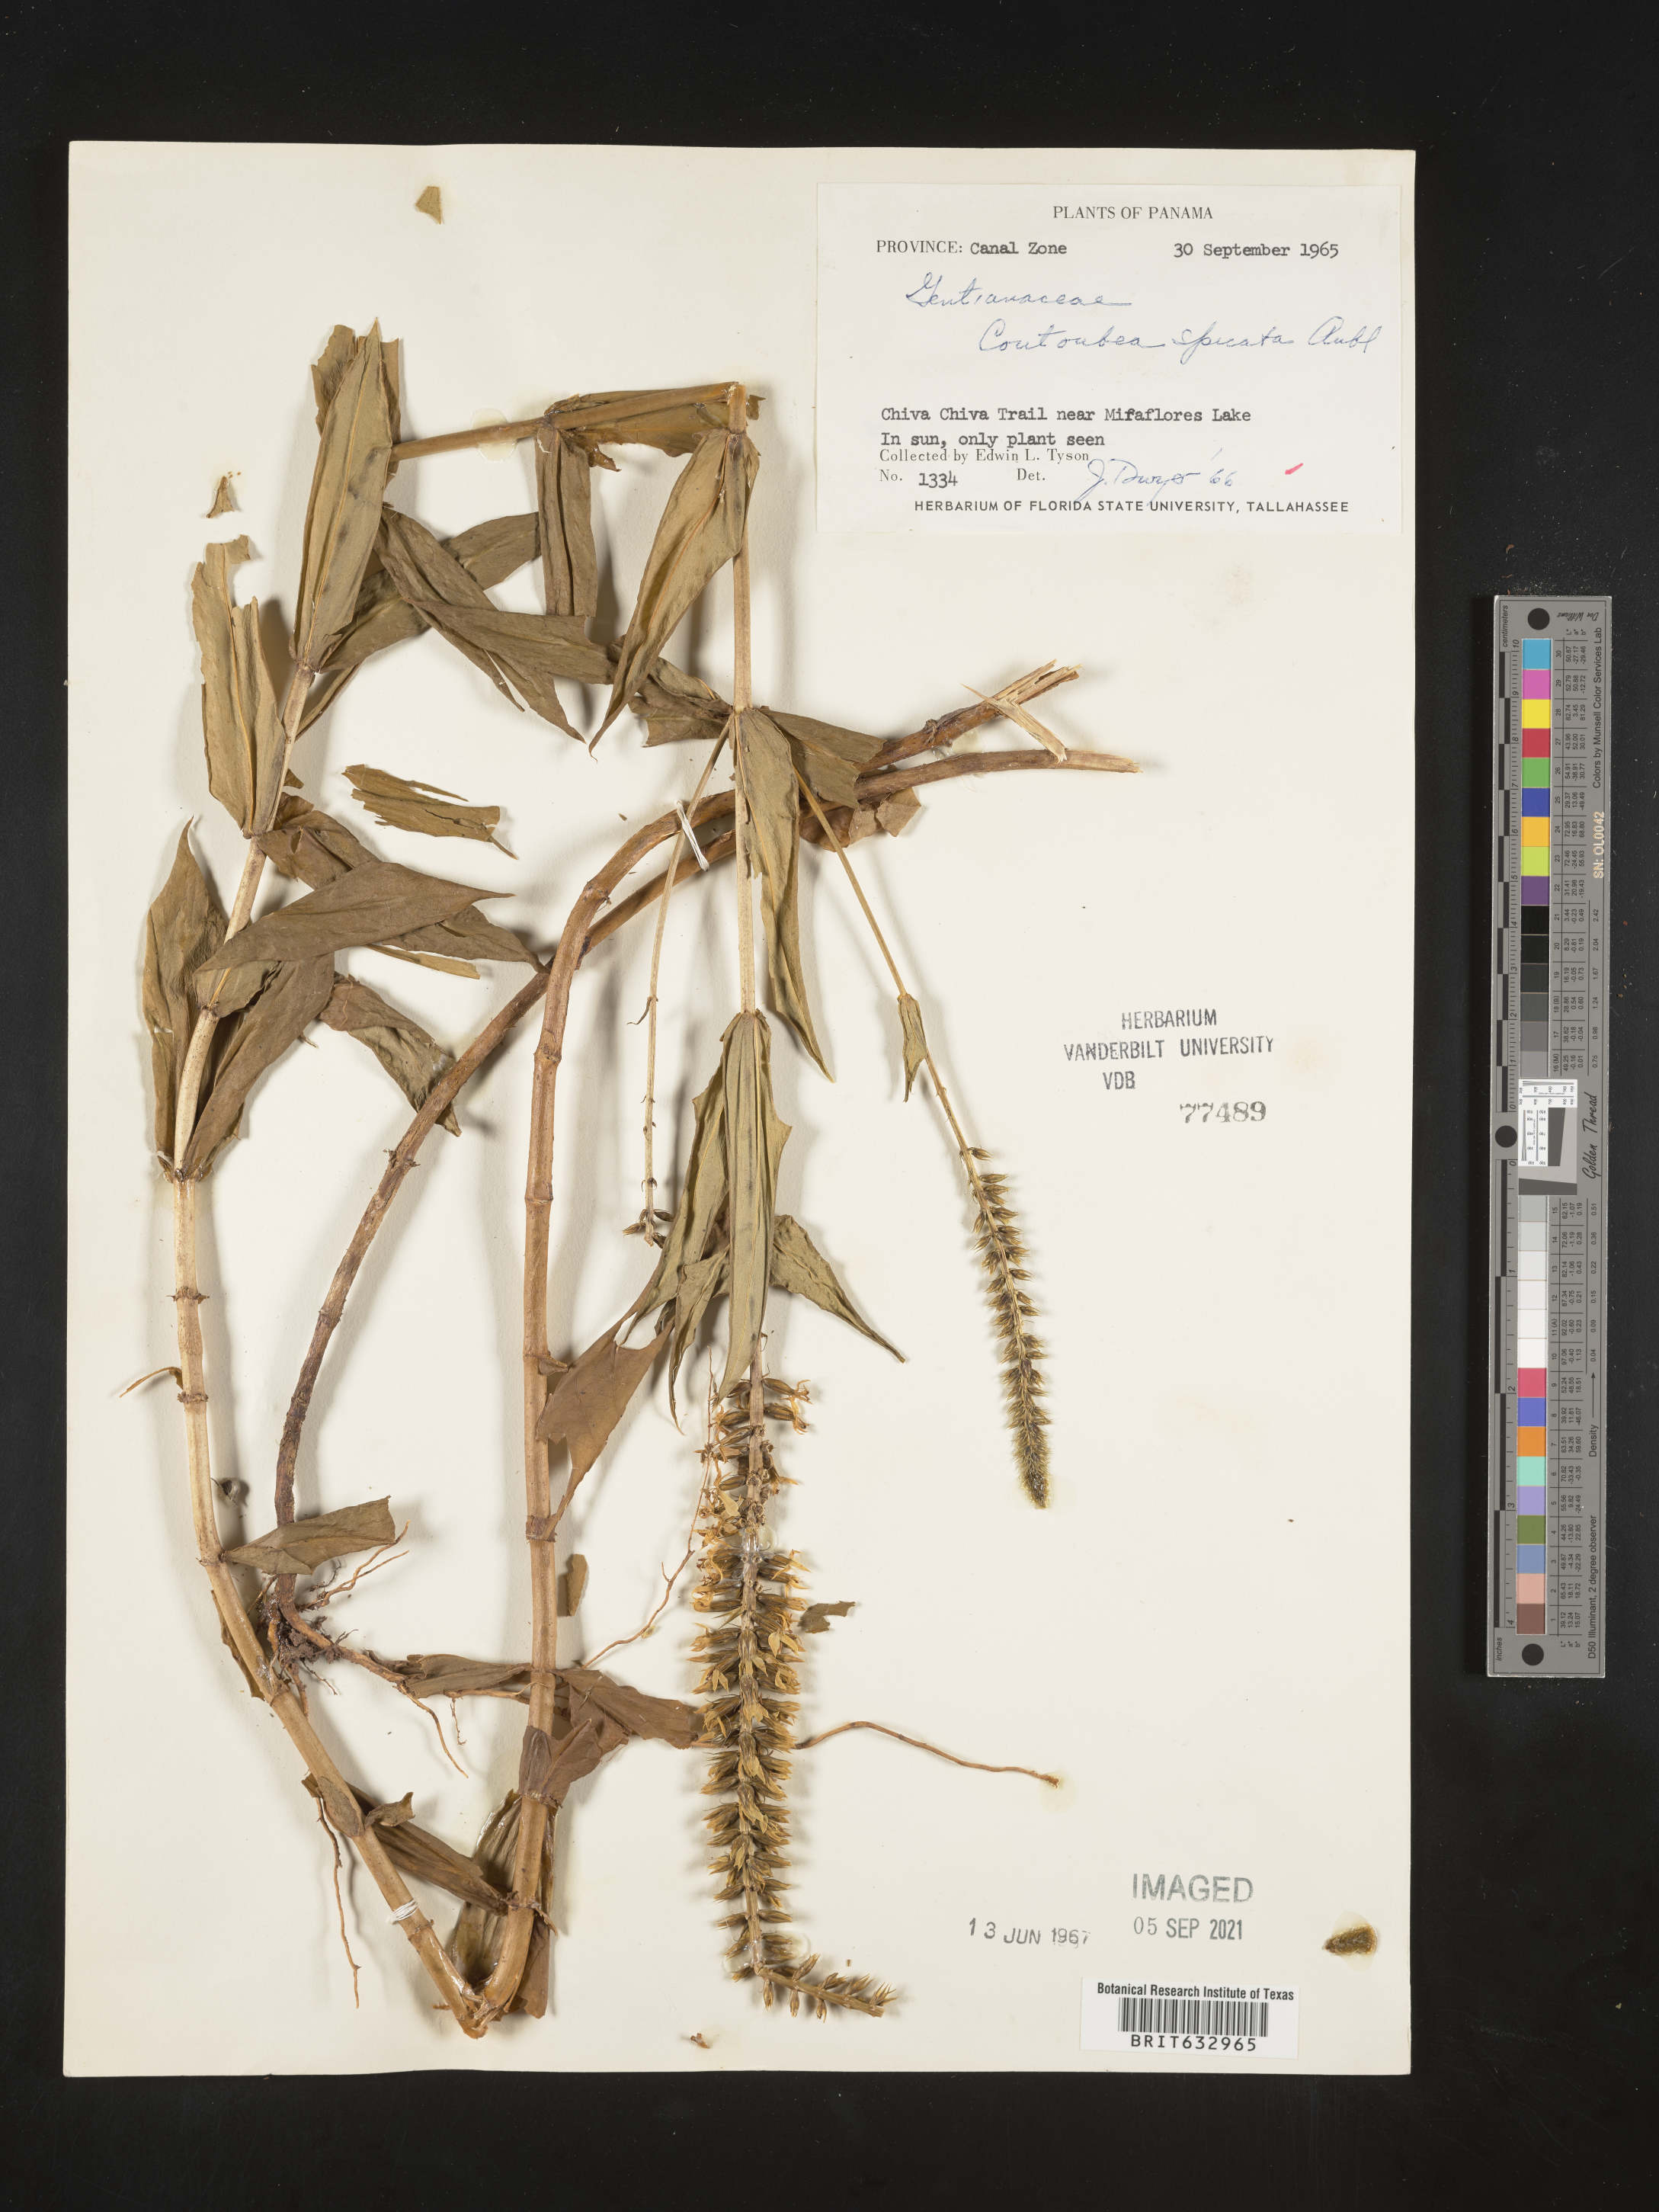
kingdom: Plantae
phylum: Tracheophyta
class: Magnoliopsida
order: Gentianales
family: Gentianaceae
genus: Coutoubea
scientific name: Coutoubea
